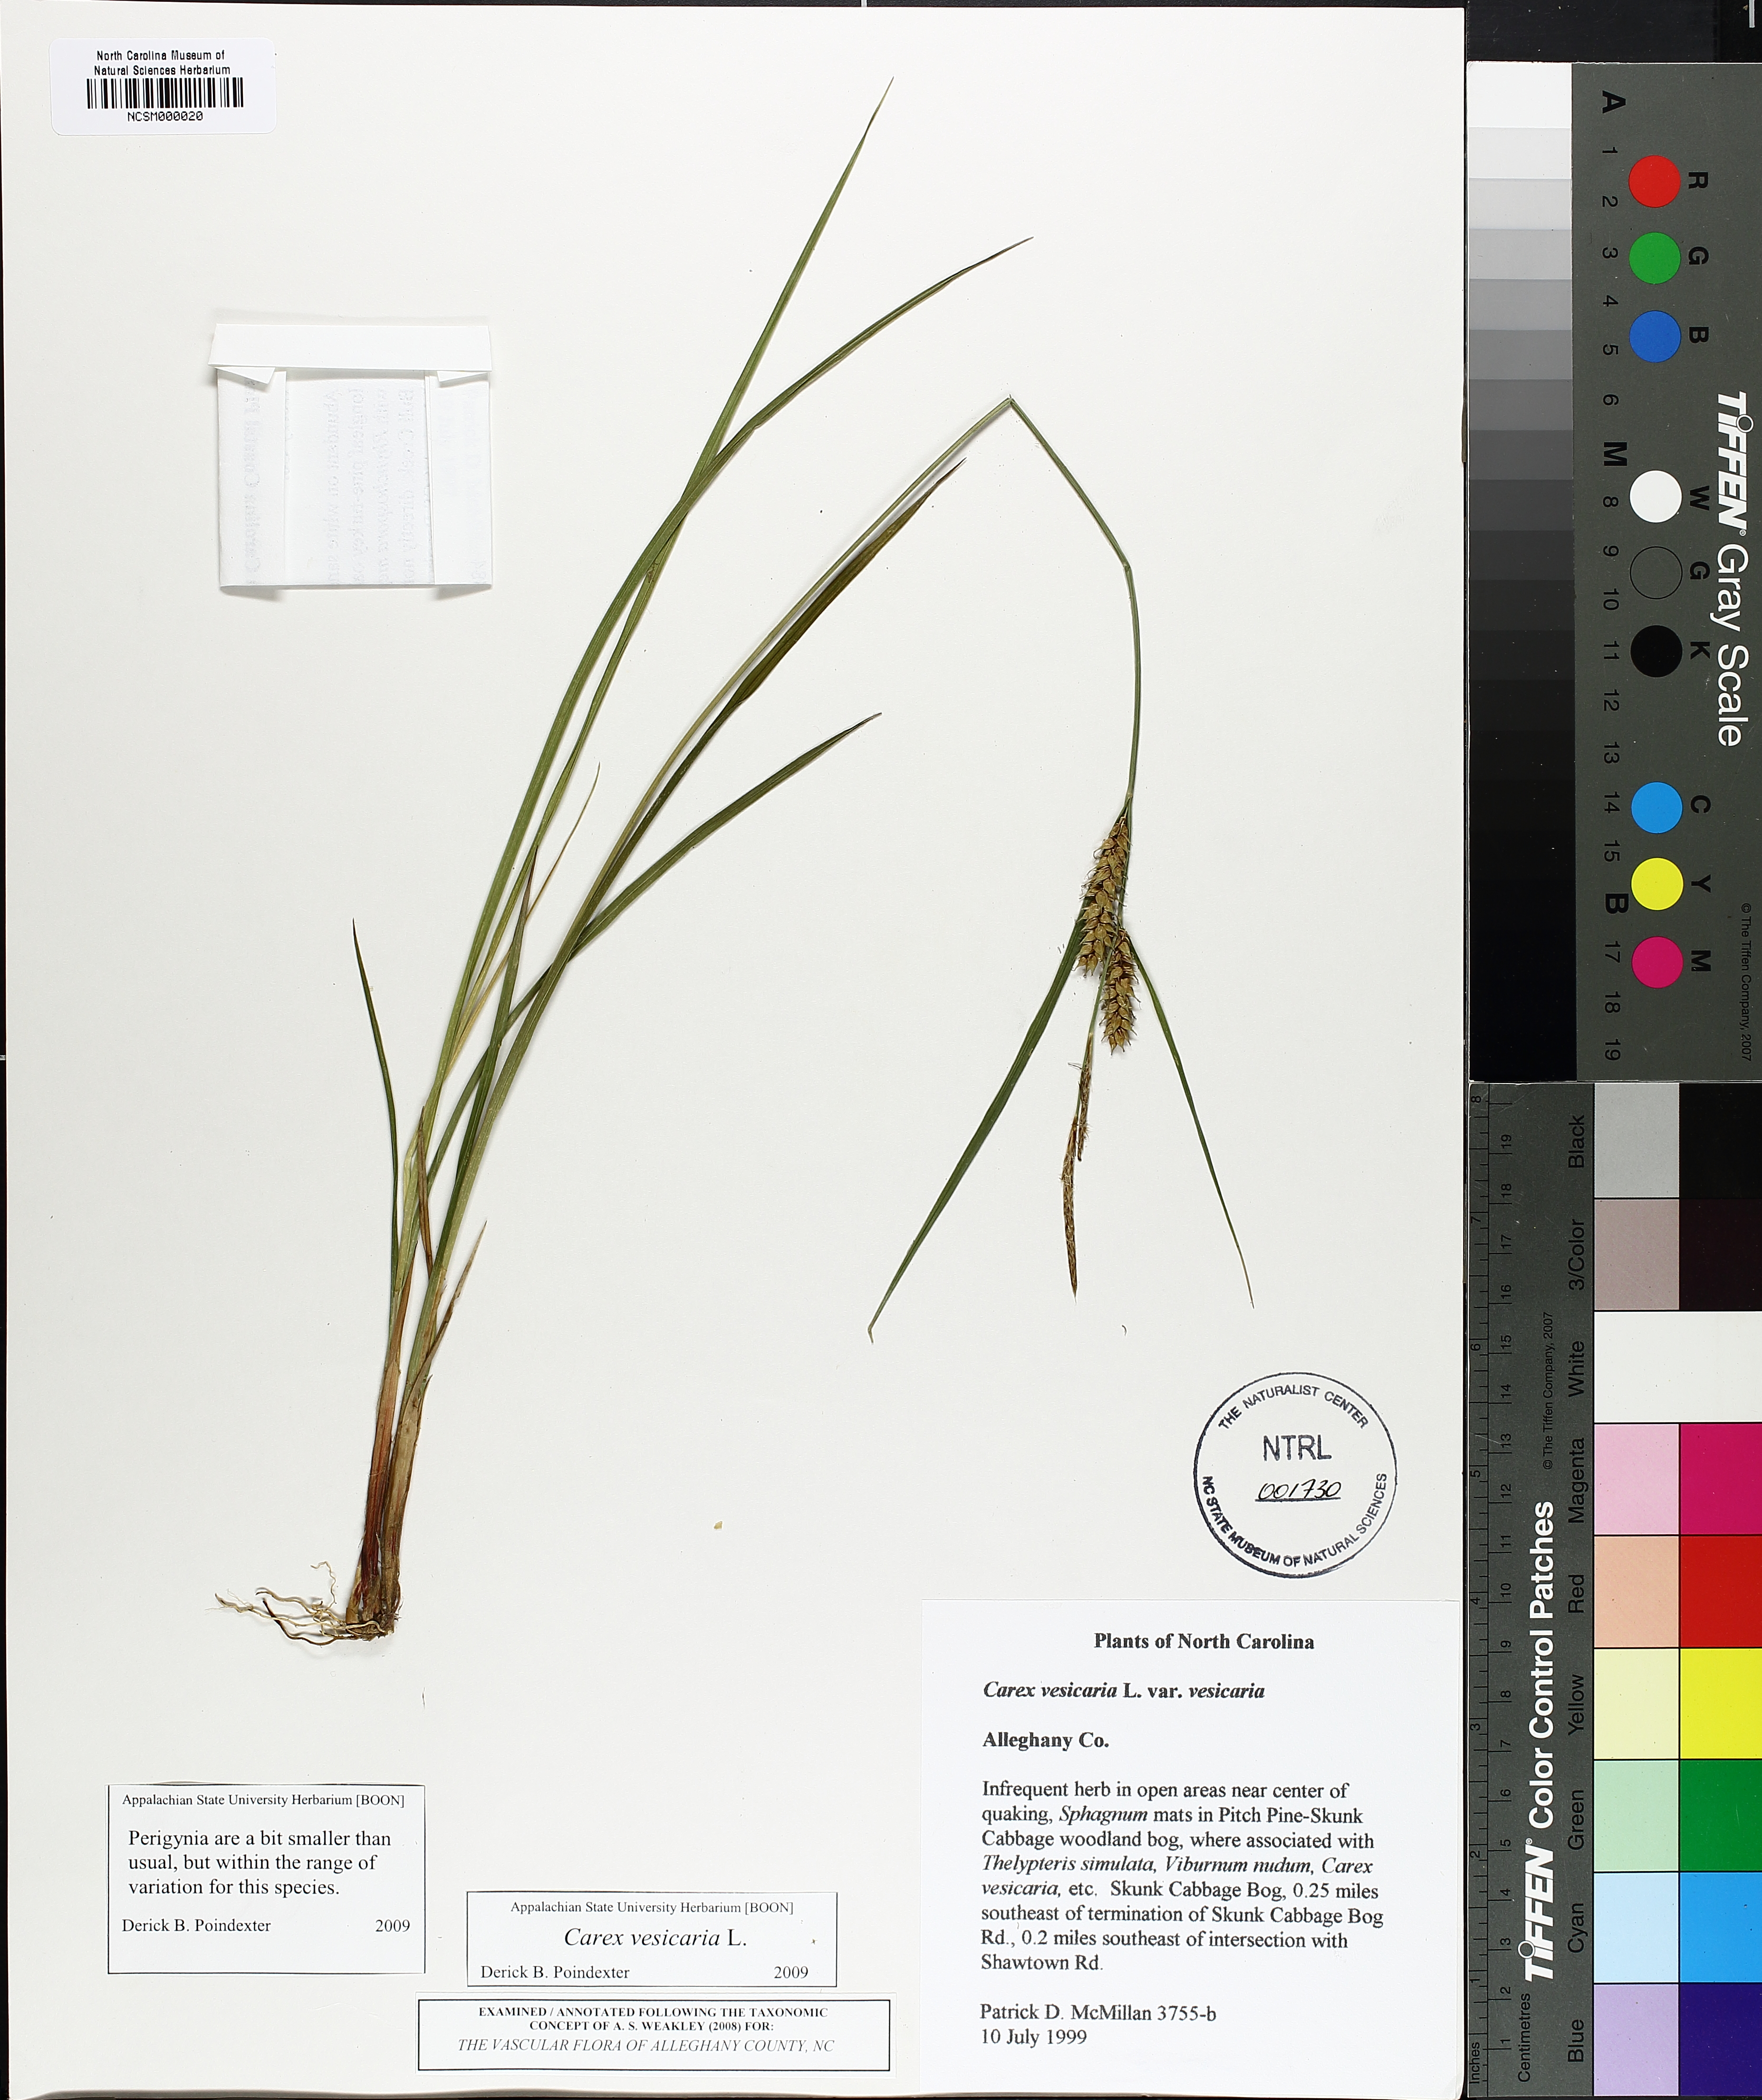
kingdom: Plantae
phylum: Tracheophyta
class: Liliopsida
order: Poales
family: Cyperaceae
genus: Carex
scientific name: Carex vesicaria
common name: Bladder-sedge
